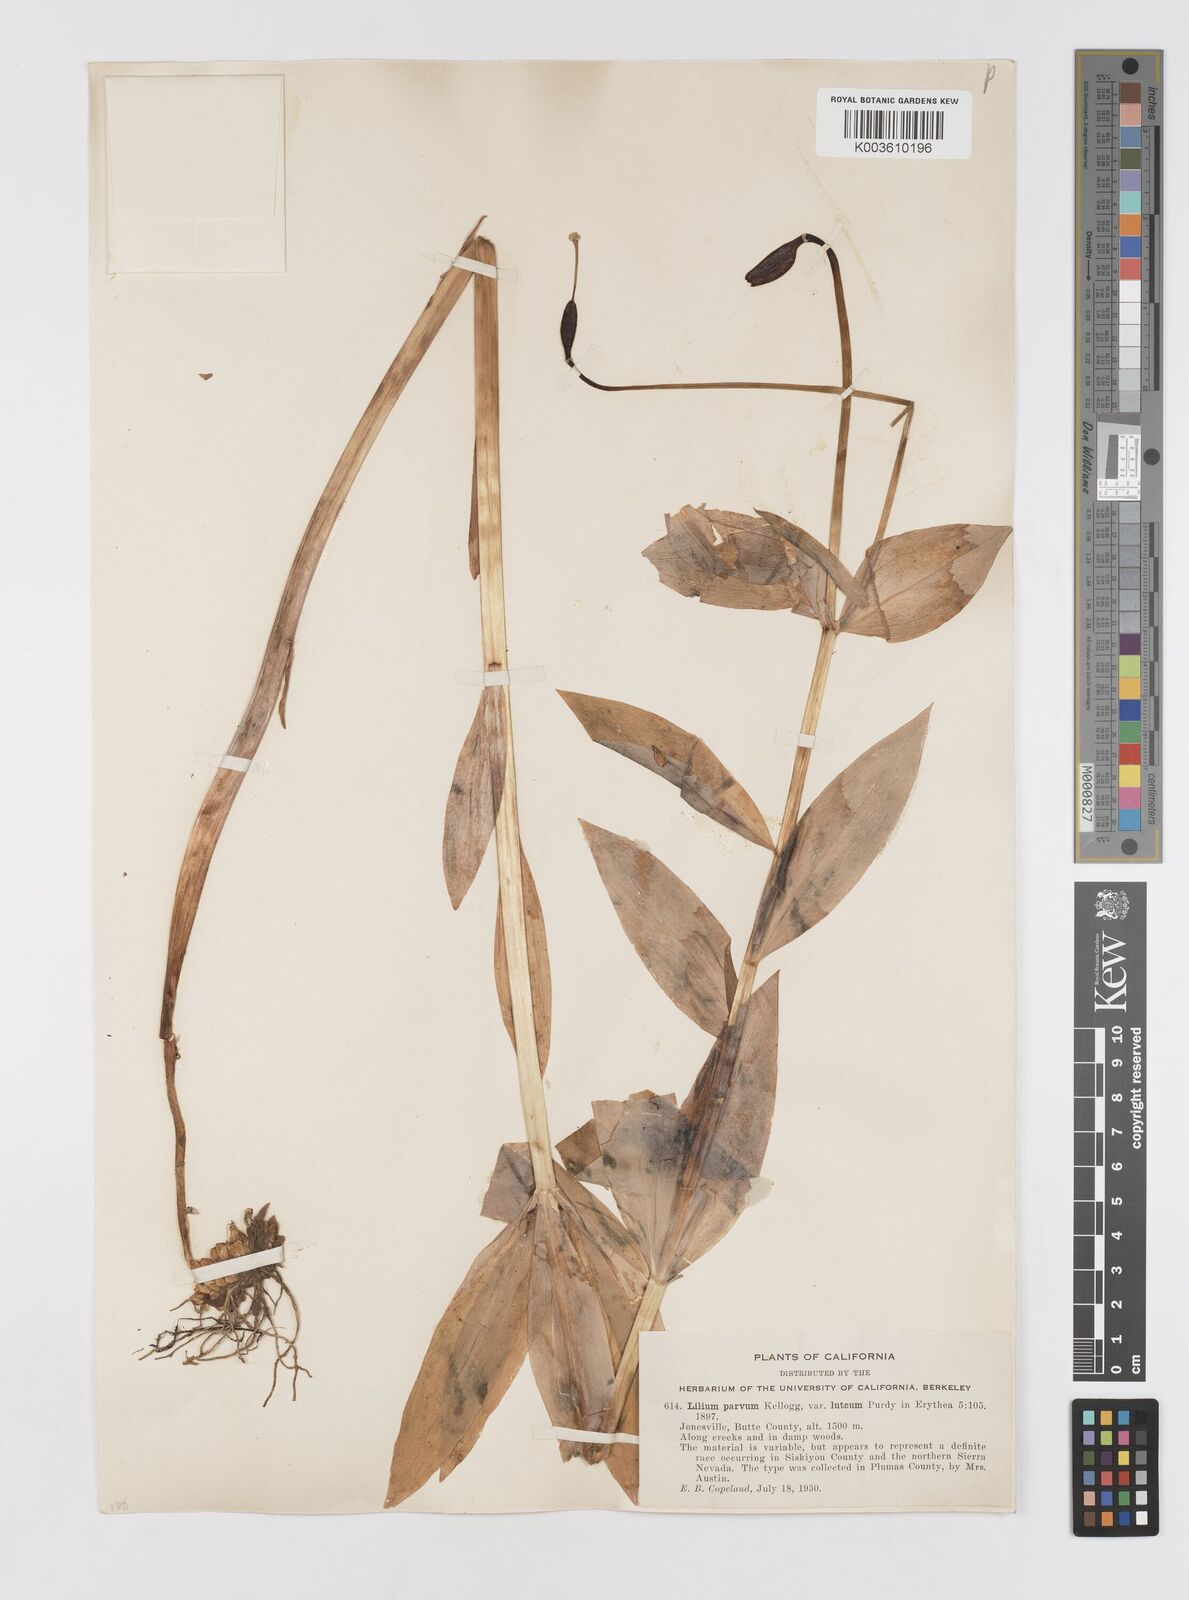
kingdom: Plantae
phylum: Tracheophyta
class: Liliopsida
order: Liliales
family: Liliaceae
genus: Lilium
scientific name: Lilium parvum
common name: Alpine lily
